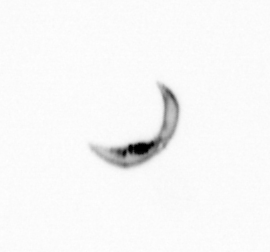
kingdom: Chromista
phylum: Ochrophyta
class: Bacillariophyceae
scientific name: Bacillariophyceae
